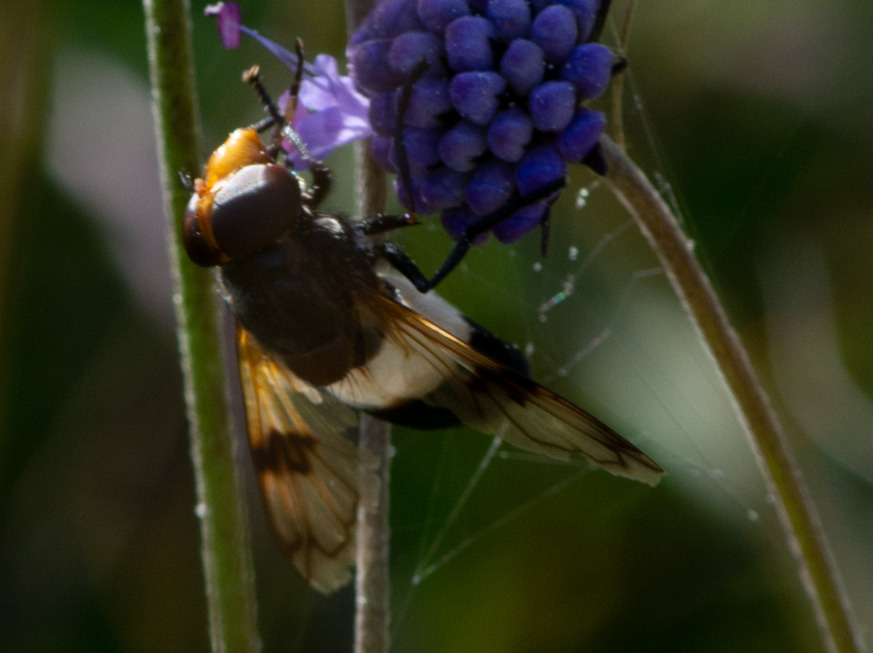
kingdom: Animalia
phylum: Arthropoda
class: Insecta
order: Diptera
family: Syrphidae
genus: Volucella
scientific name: Volucella pellucens
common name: Hvidbåndet humlesvirreflue
